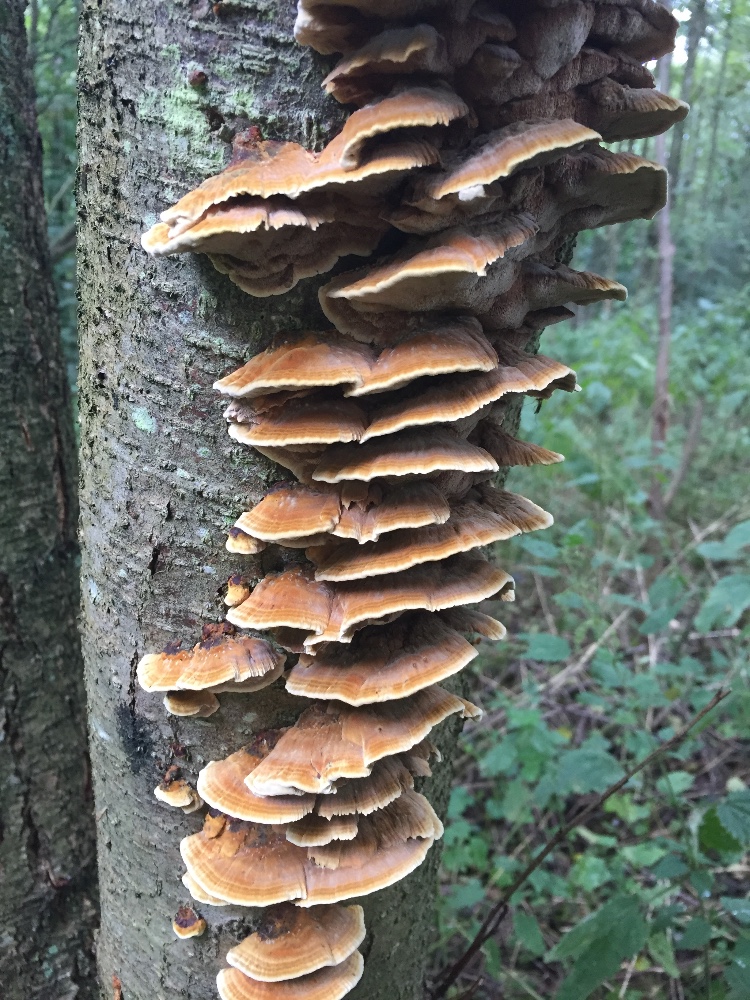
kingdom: Fungi
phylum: Basidiomycota
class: Agaricomycetes
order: Hymenochaetales
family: Hymenochaetaceae
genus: Xanthoporia
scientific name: Xanthoporia radiata
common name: elle-spejlporesvamp
